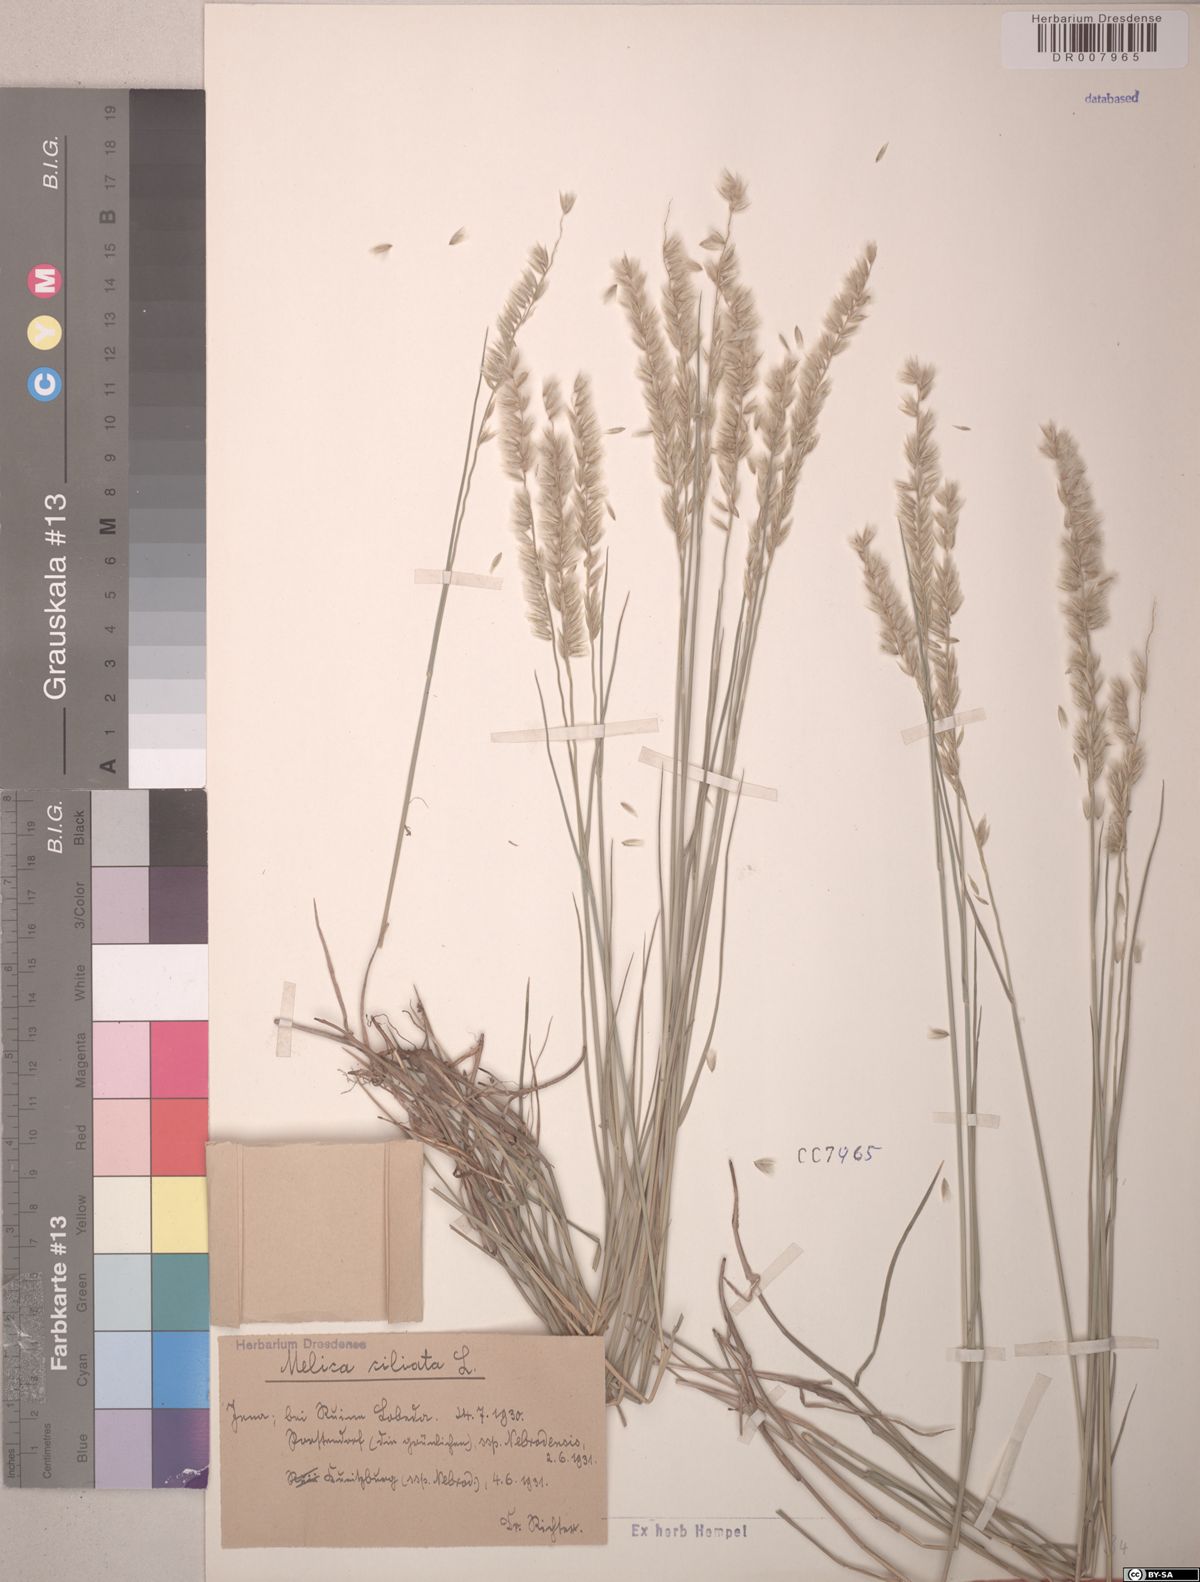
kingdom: Plantae
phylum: Tracheophyta
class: Liliopsida
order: Poales
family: Poaceae
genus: Melica
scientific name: Melica ciliata
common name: Hairy melicgrass
